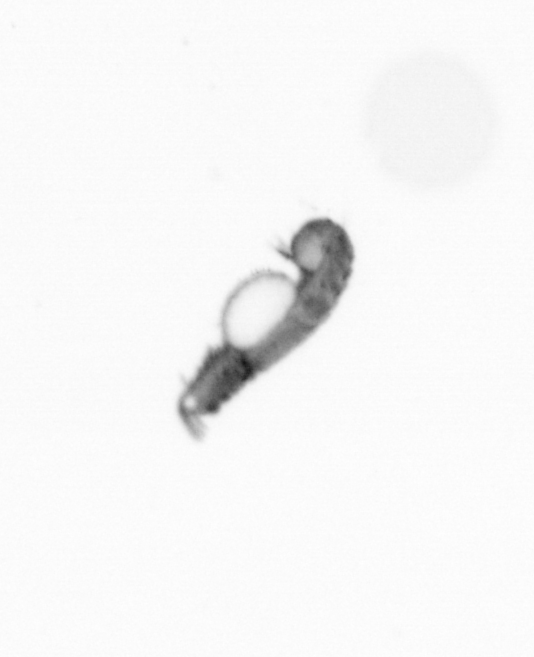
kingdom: Animalia
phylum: Annelida
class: Polychaeta
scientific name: Polychaeta
